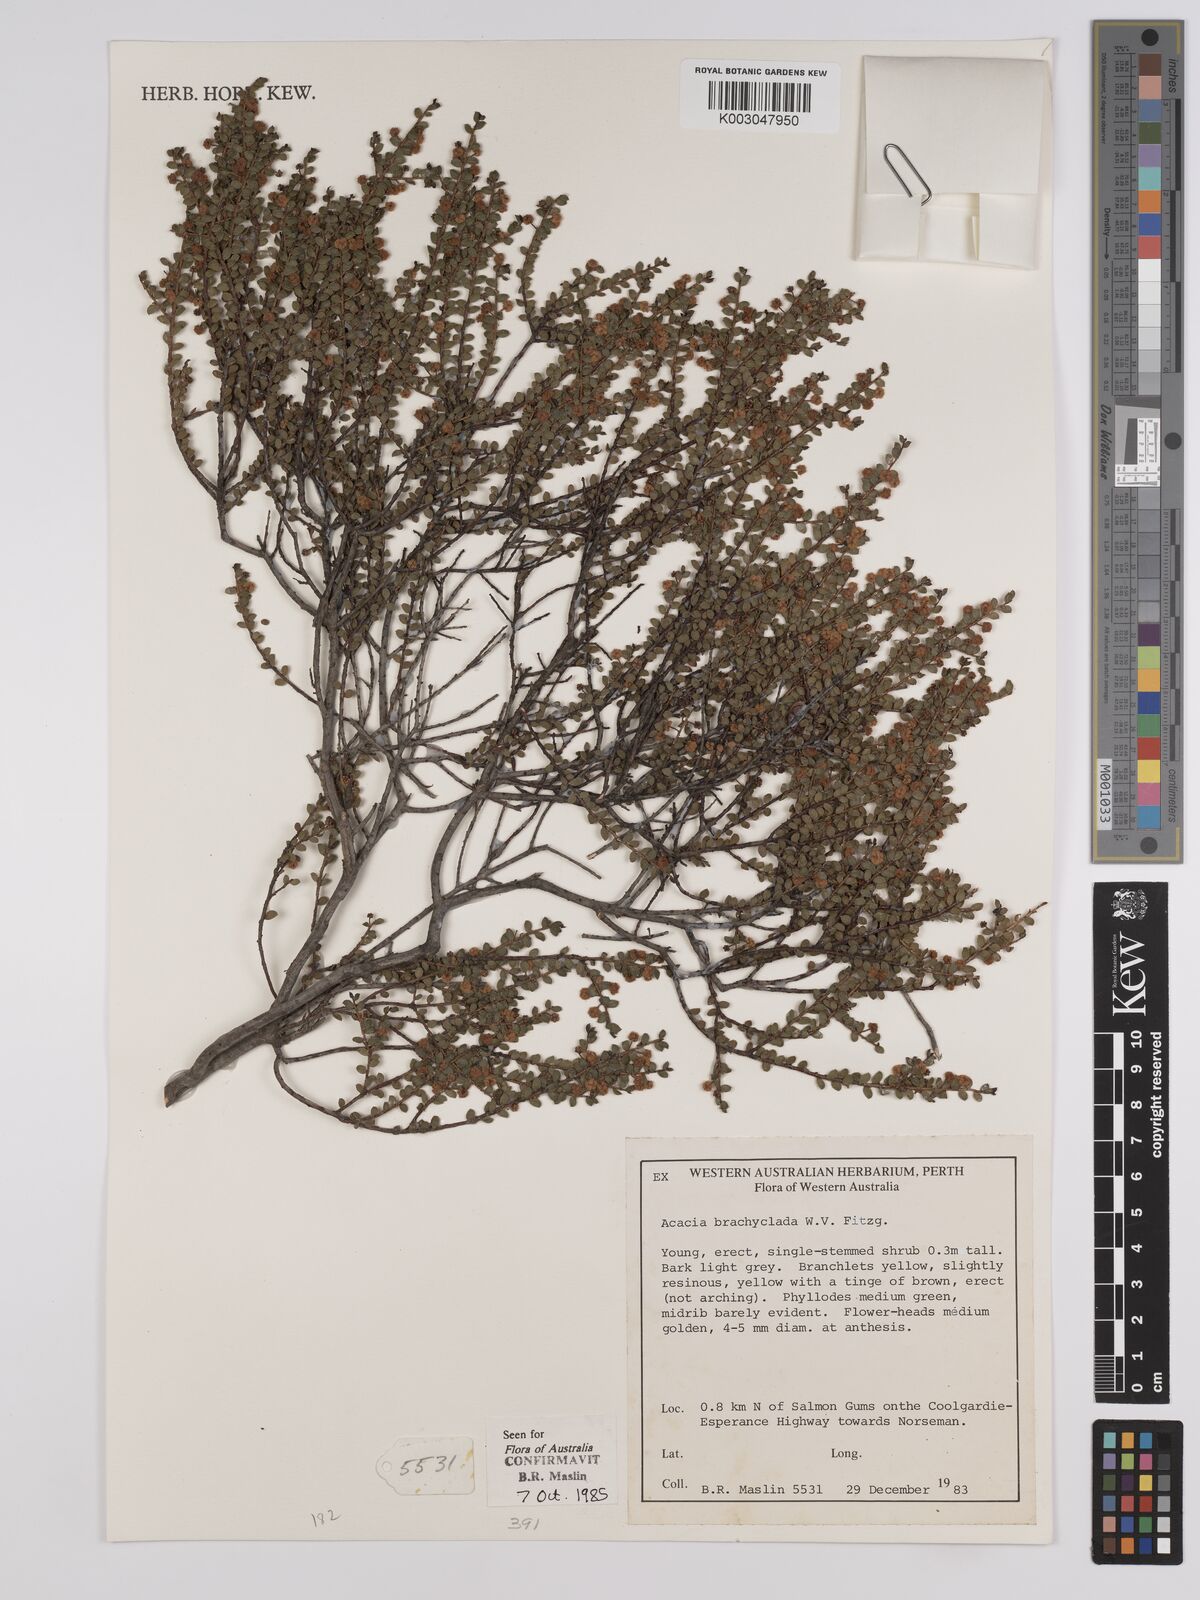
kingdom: Plantae
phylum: Tracheophyta
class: Magnoliopsida
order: Fabales
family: Fabaceae
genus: Acacia
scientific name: Acacia brachyclada
